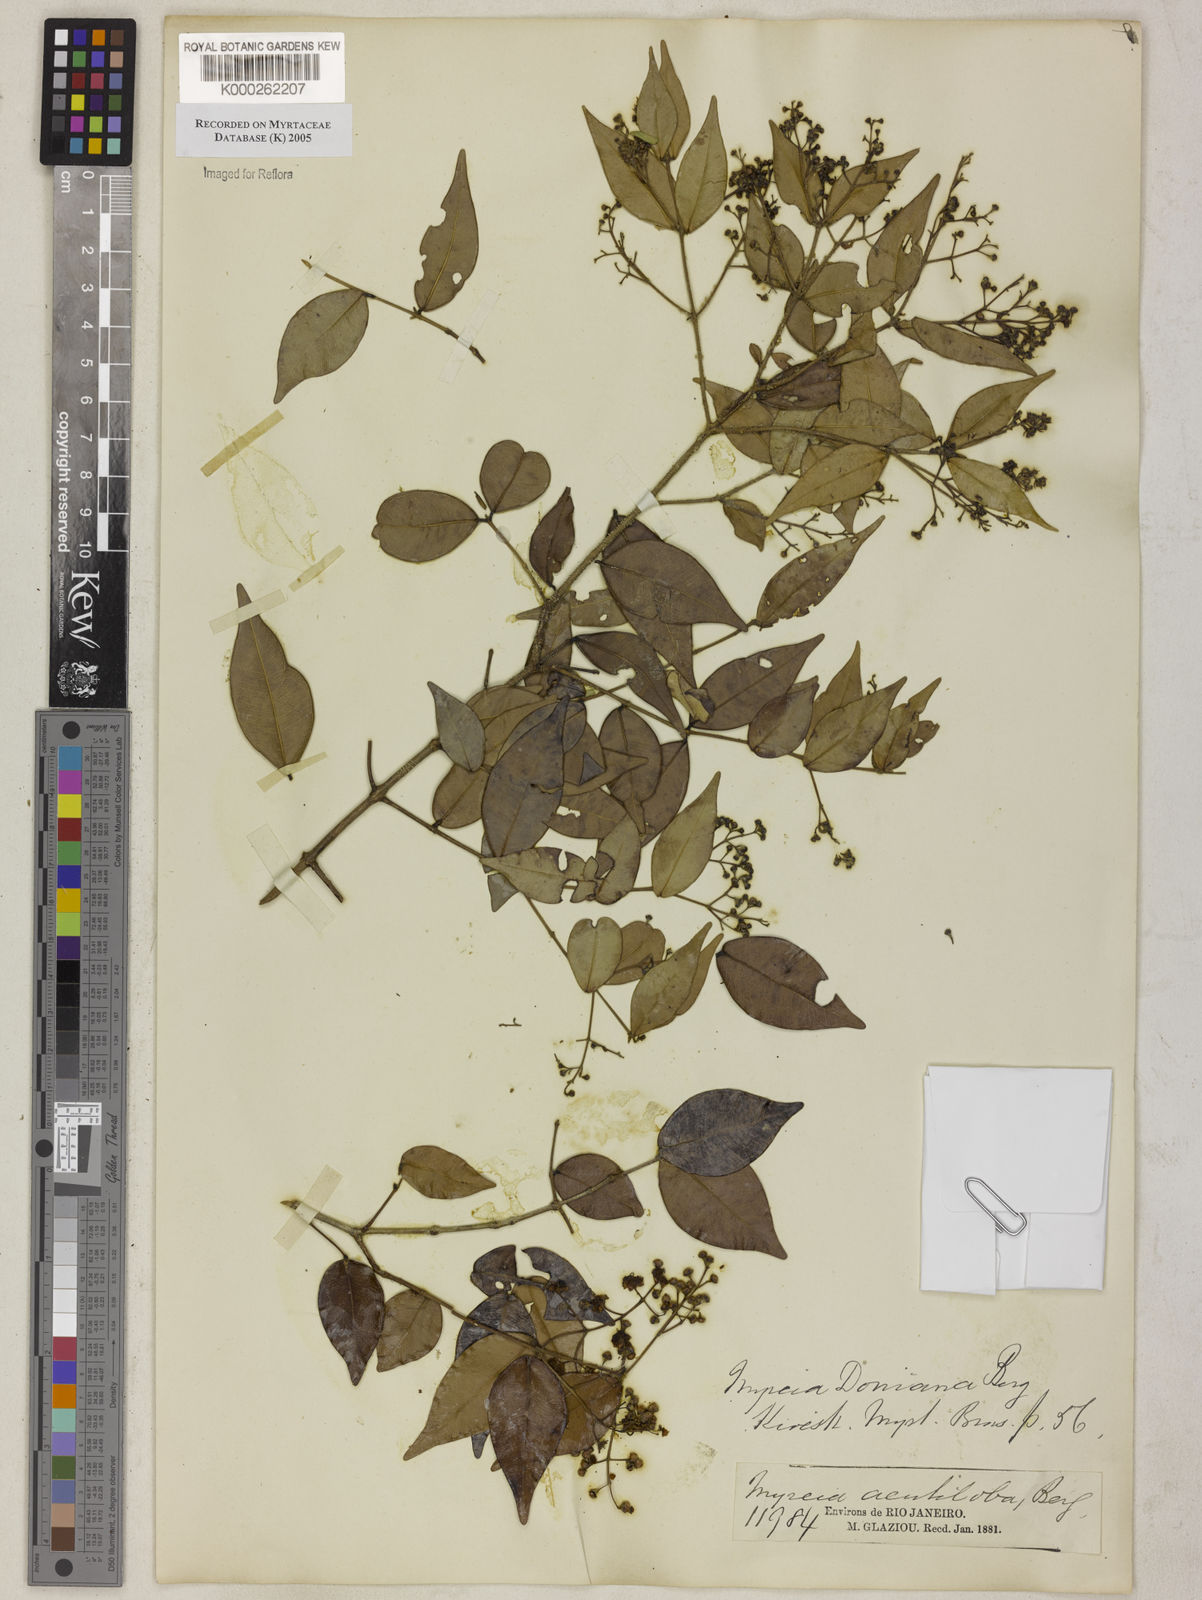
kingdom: Plantae
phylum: Tracheophyta
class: Magnoliopsida
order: Myrtales
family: Myrtaceae
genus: Myrcia
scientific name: Myrcia doniana
